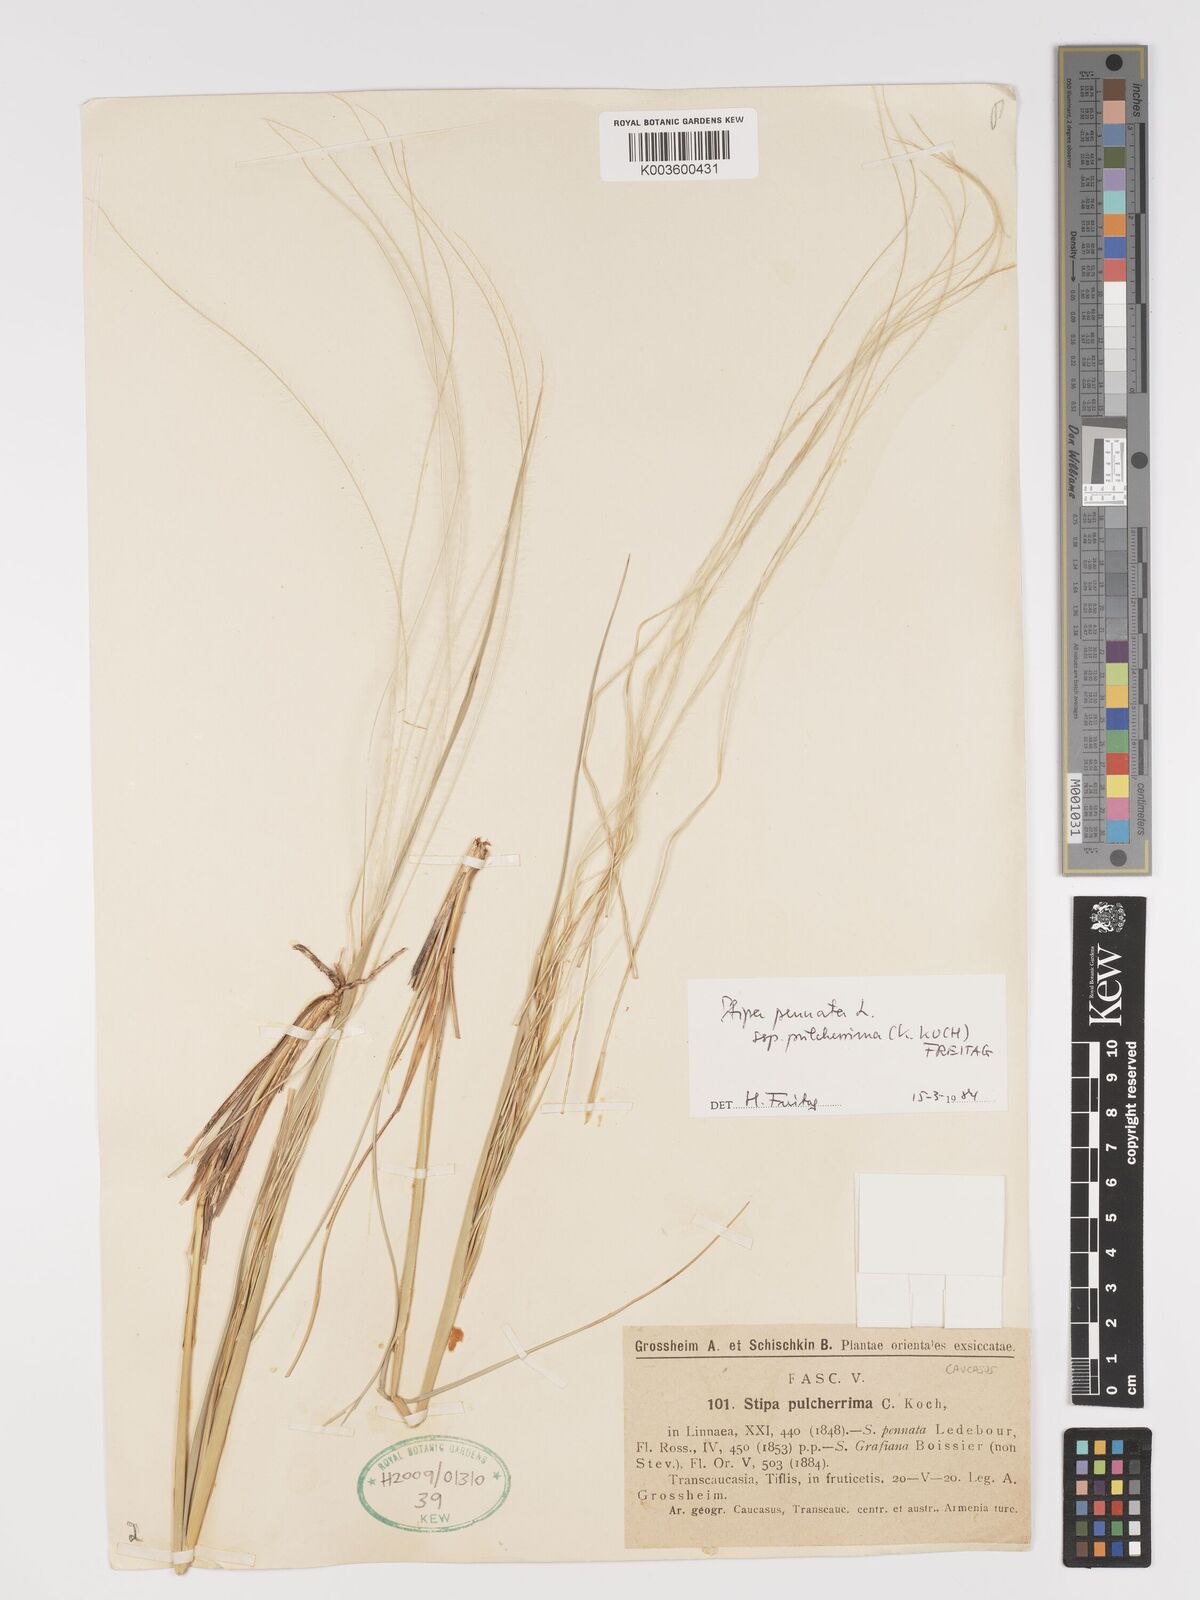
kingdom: Plantae
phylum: Tracheophyta
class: Liliopsida
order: Poales
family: Poaceae
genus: Stipa
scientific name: Stipa pulcherrima
